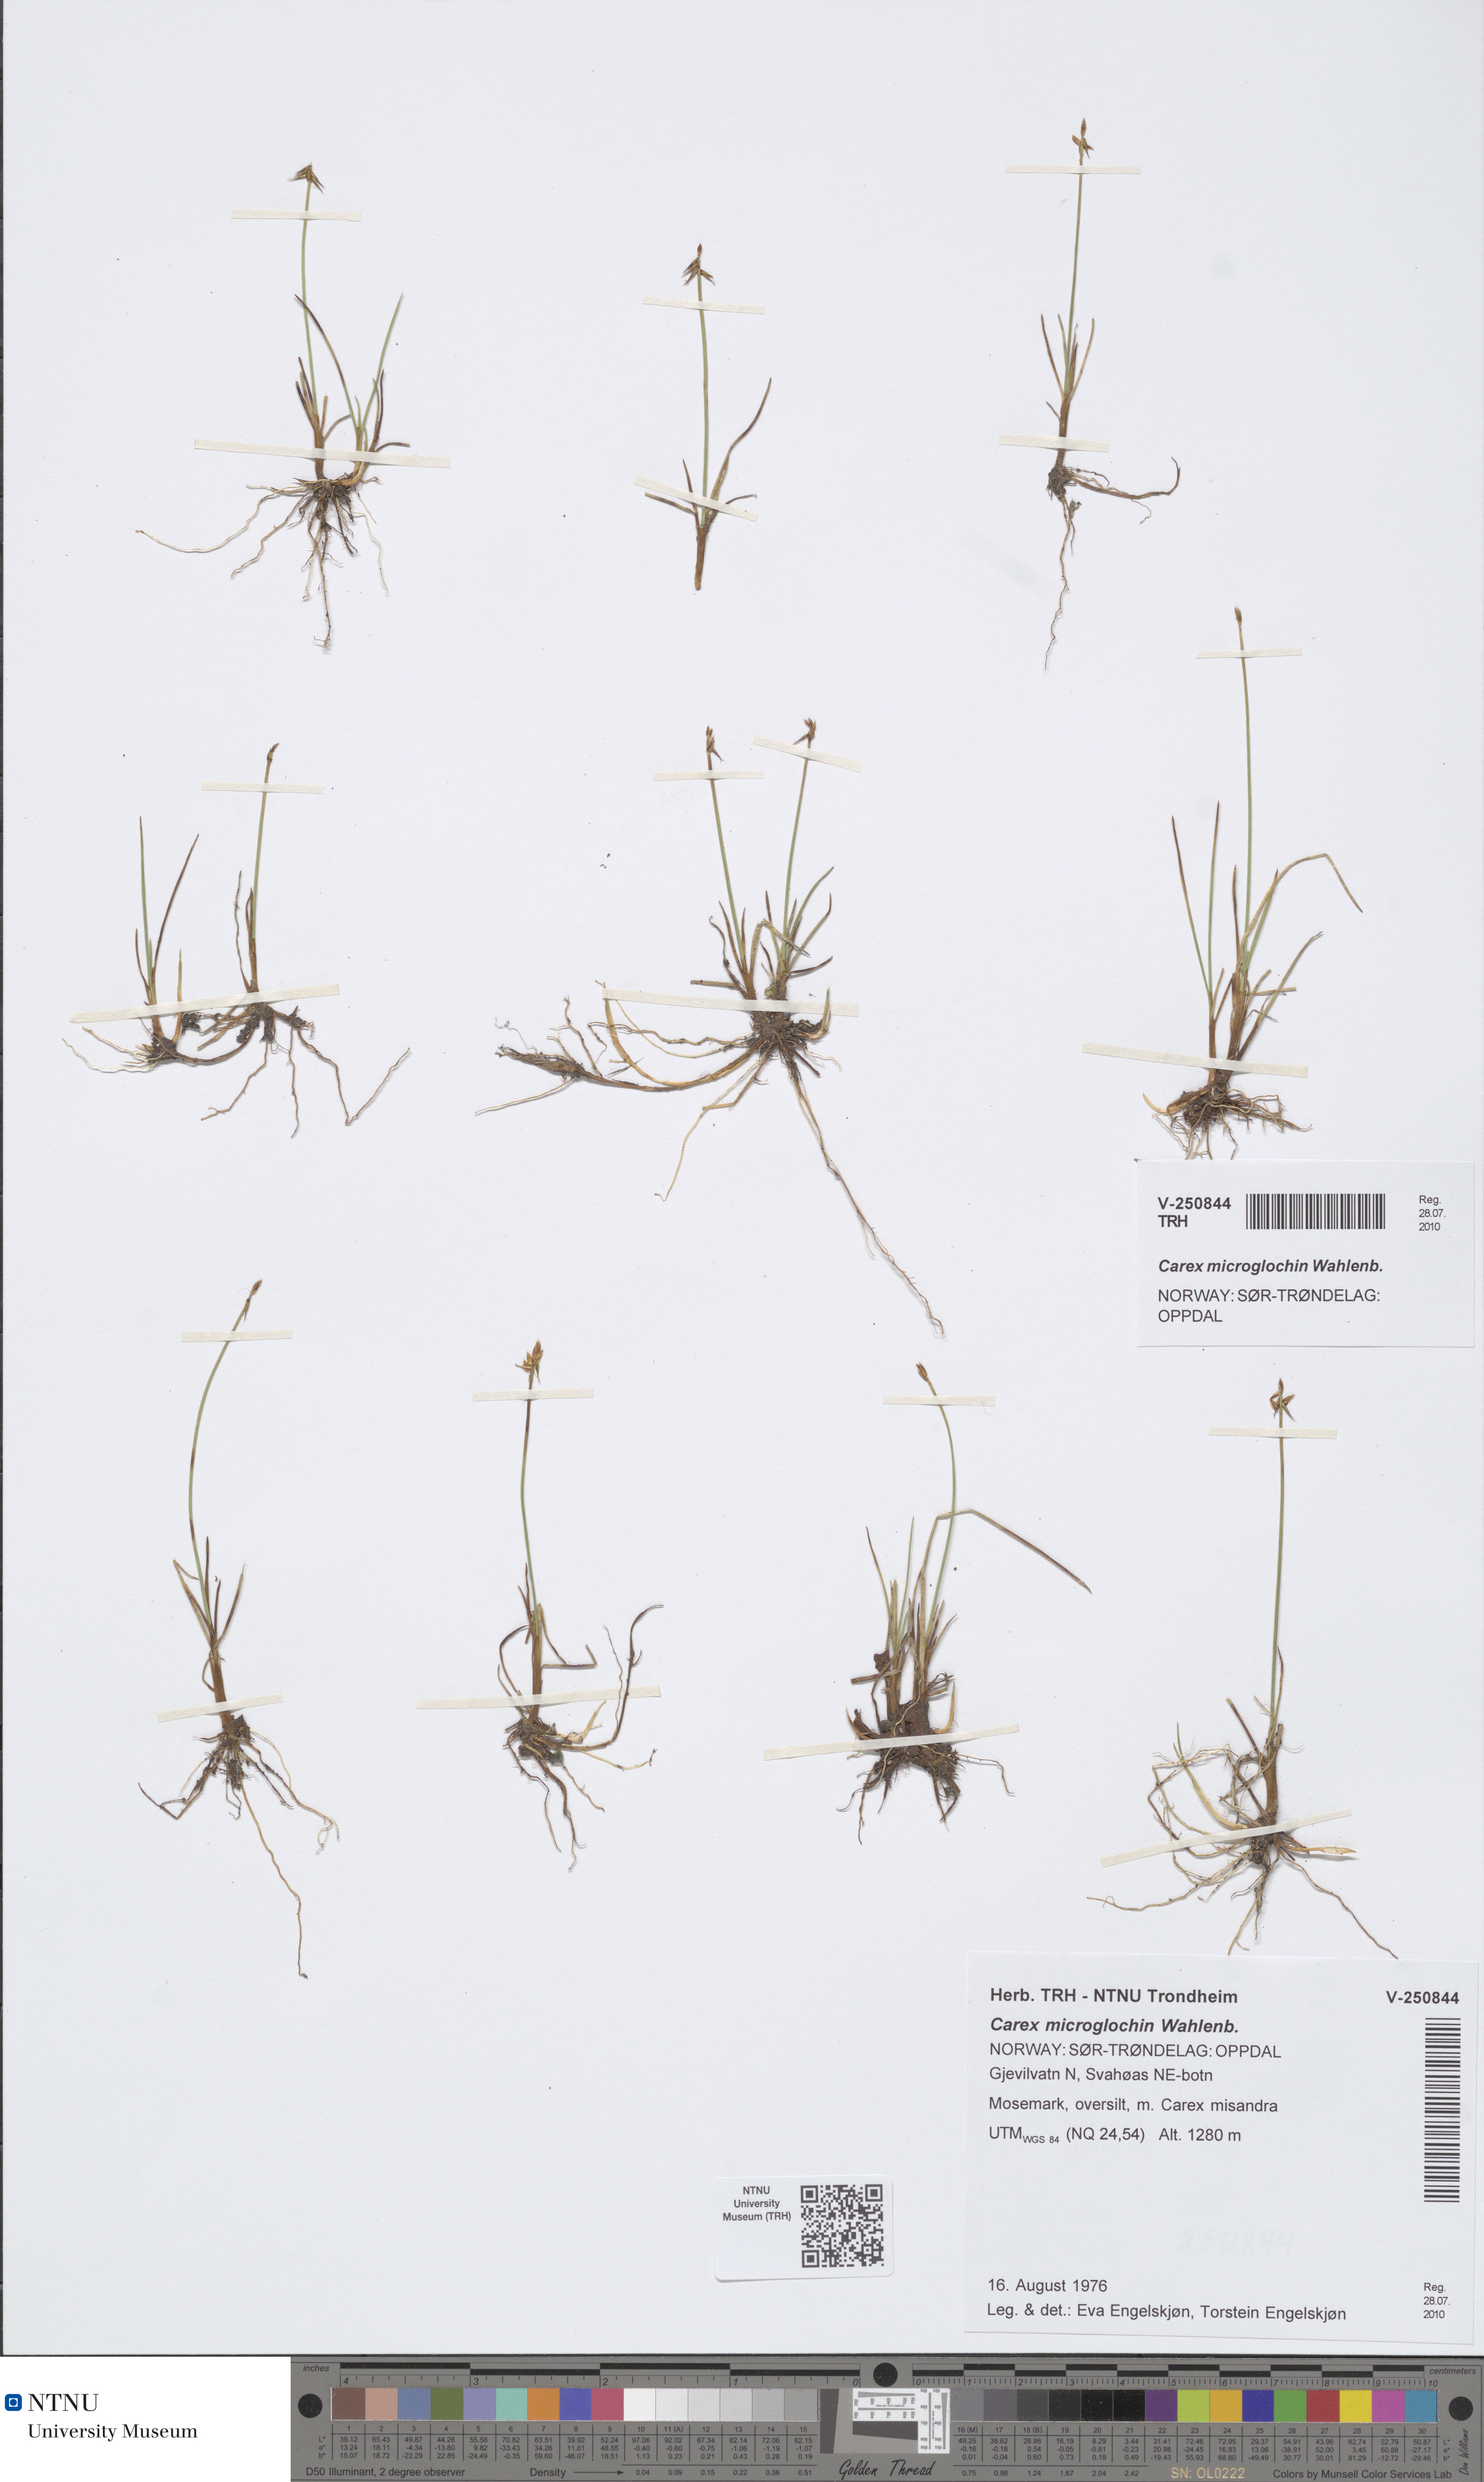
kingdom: Plantae
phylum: Tracheophyta
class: Liliopsida
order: Poales
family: Cyperaceae
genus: Carex
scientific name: Carex microglochin
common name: Bristle sedge
